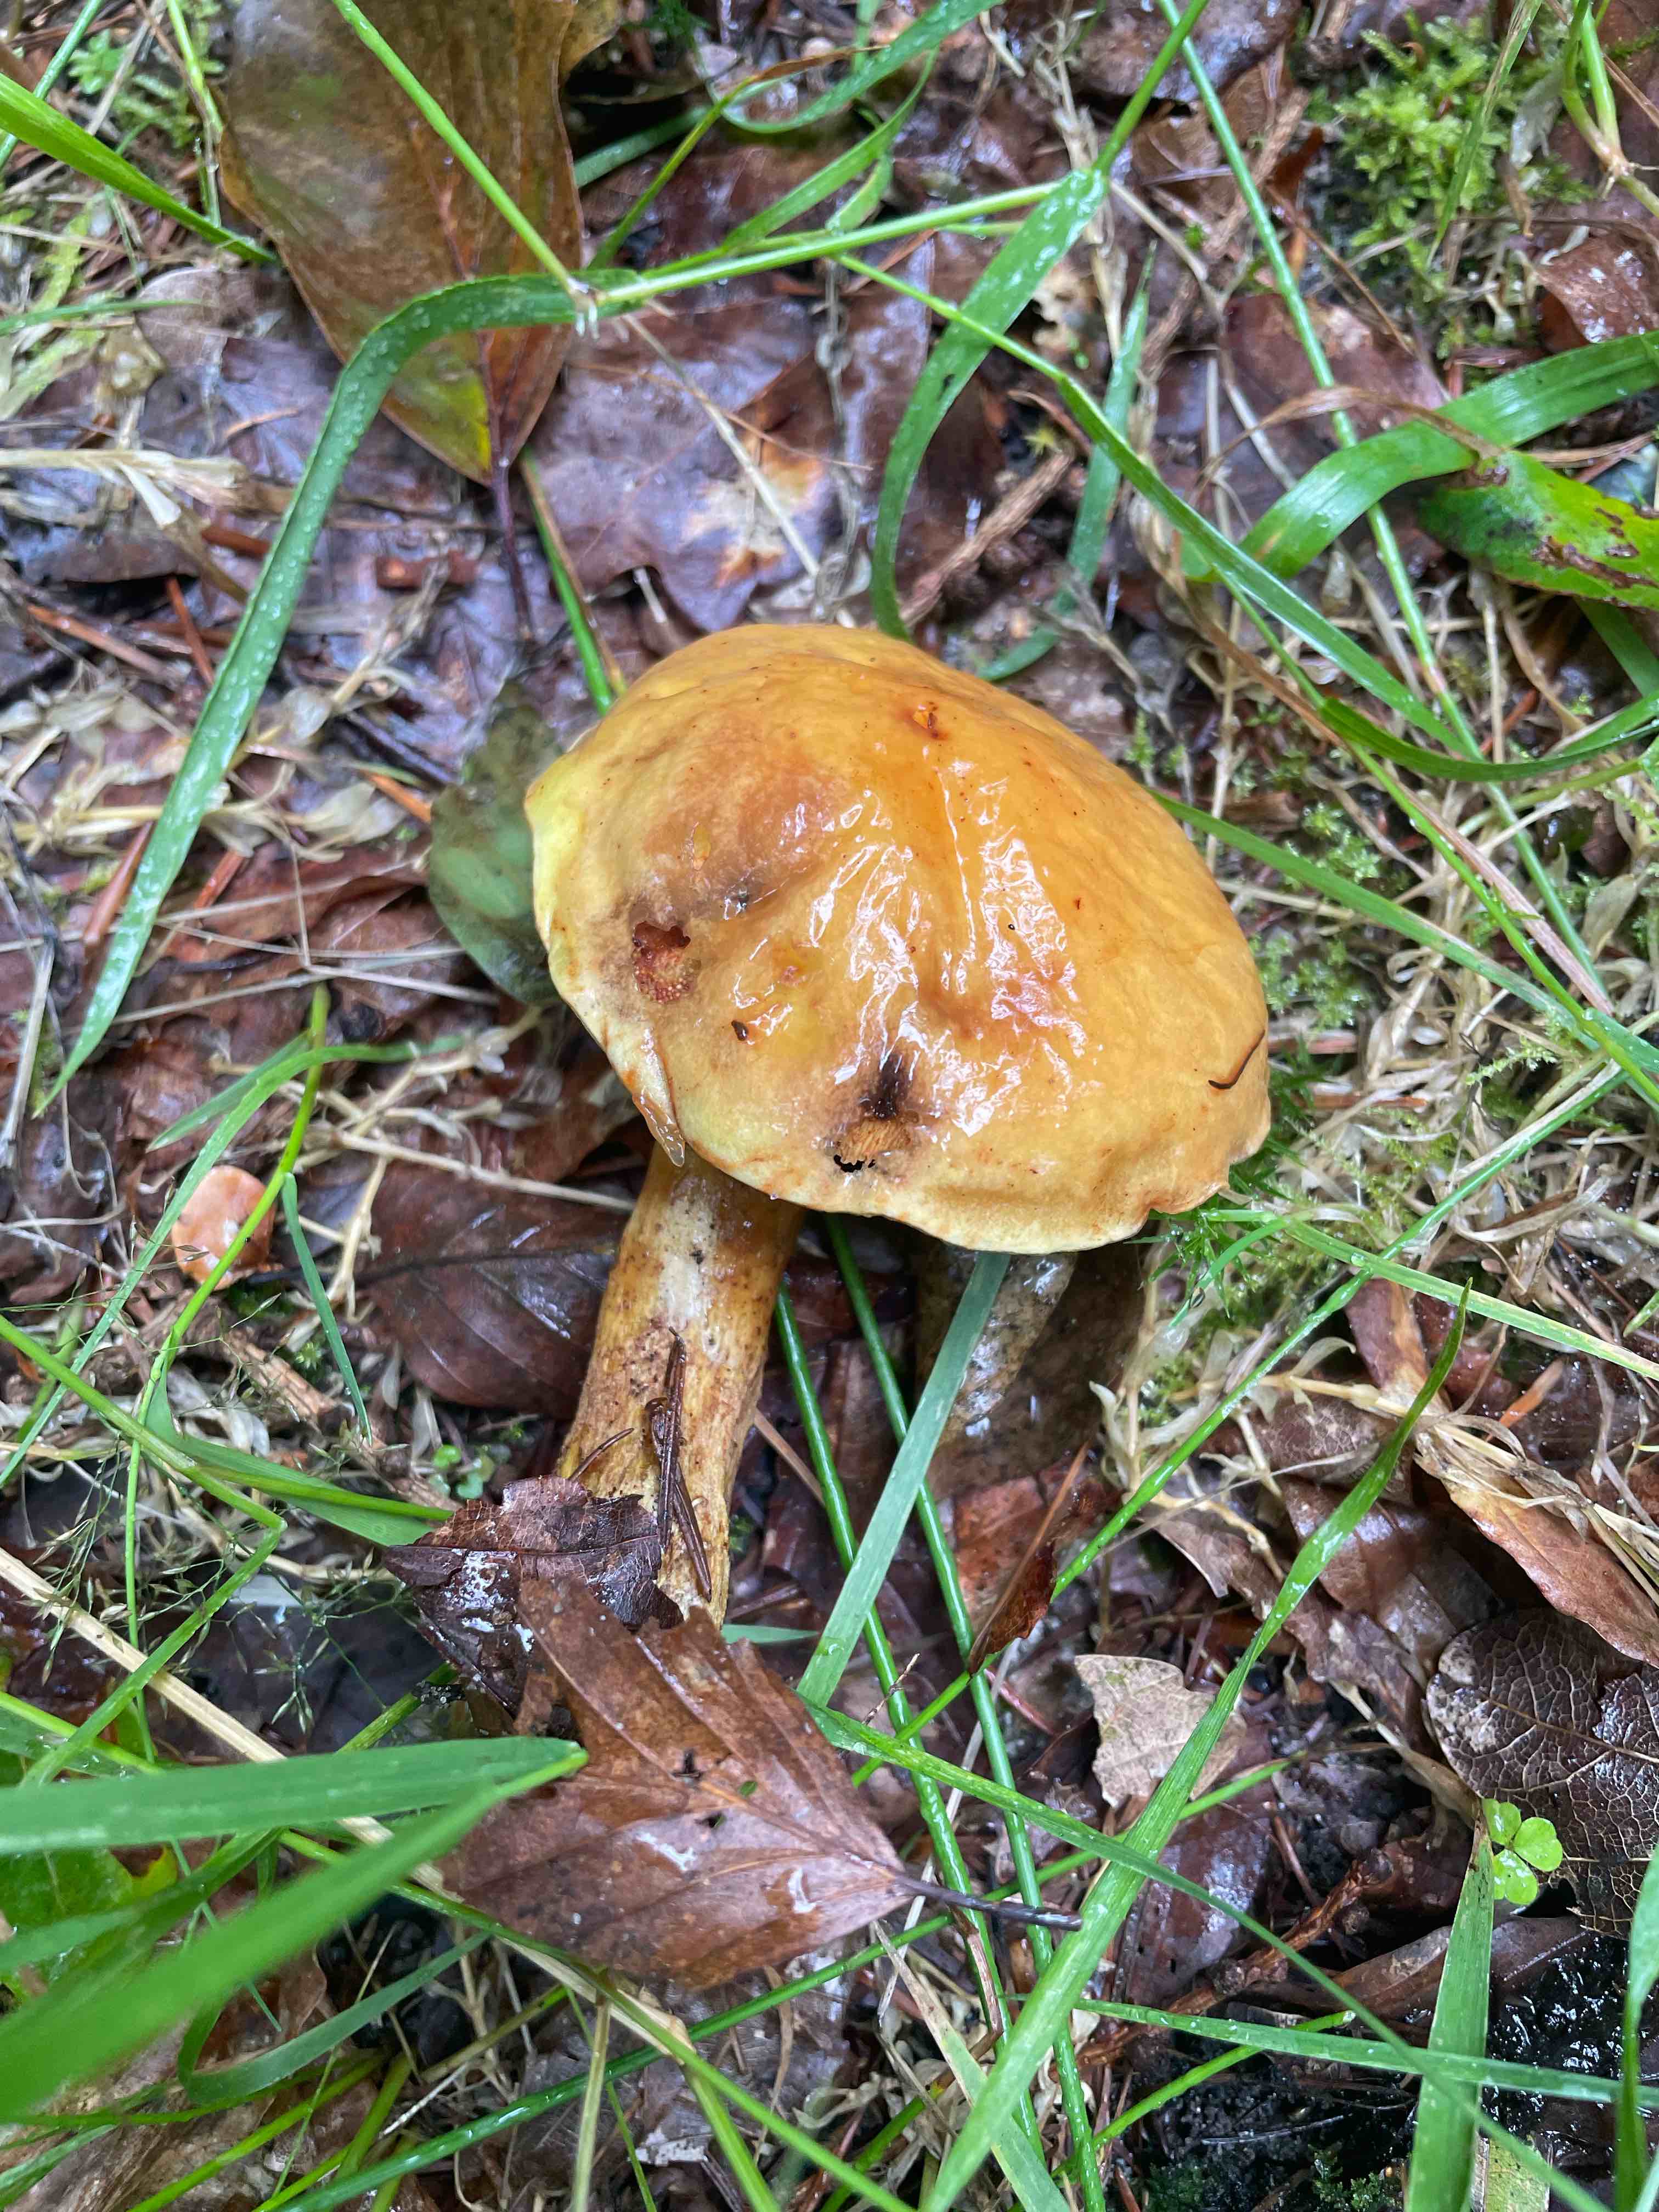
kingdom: Fungi
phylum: Basidiomycota
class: Agaricomycetes
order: Boletales
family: Suillaceae
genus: Suillus
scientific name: Suillus
